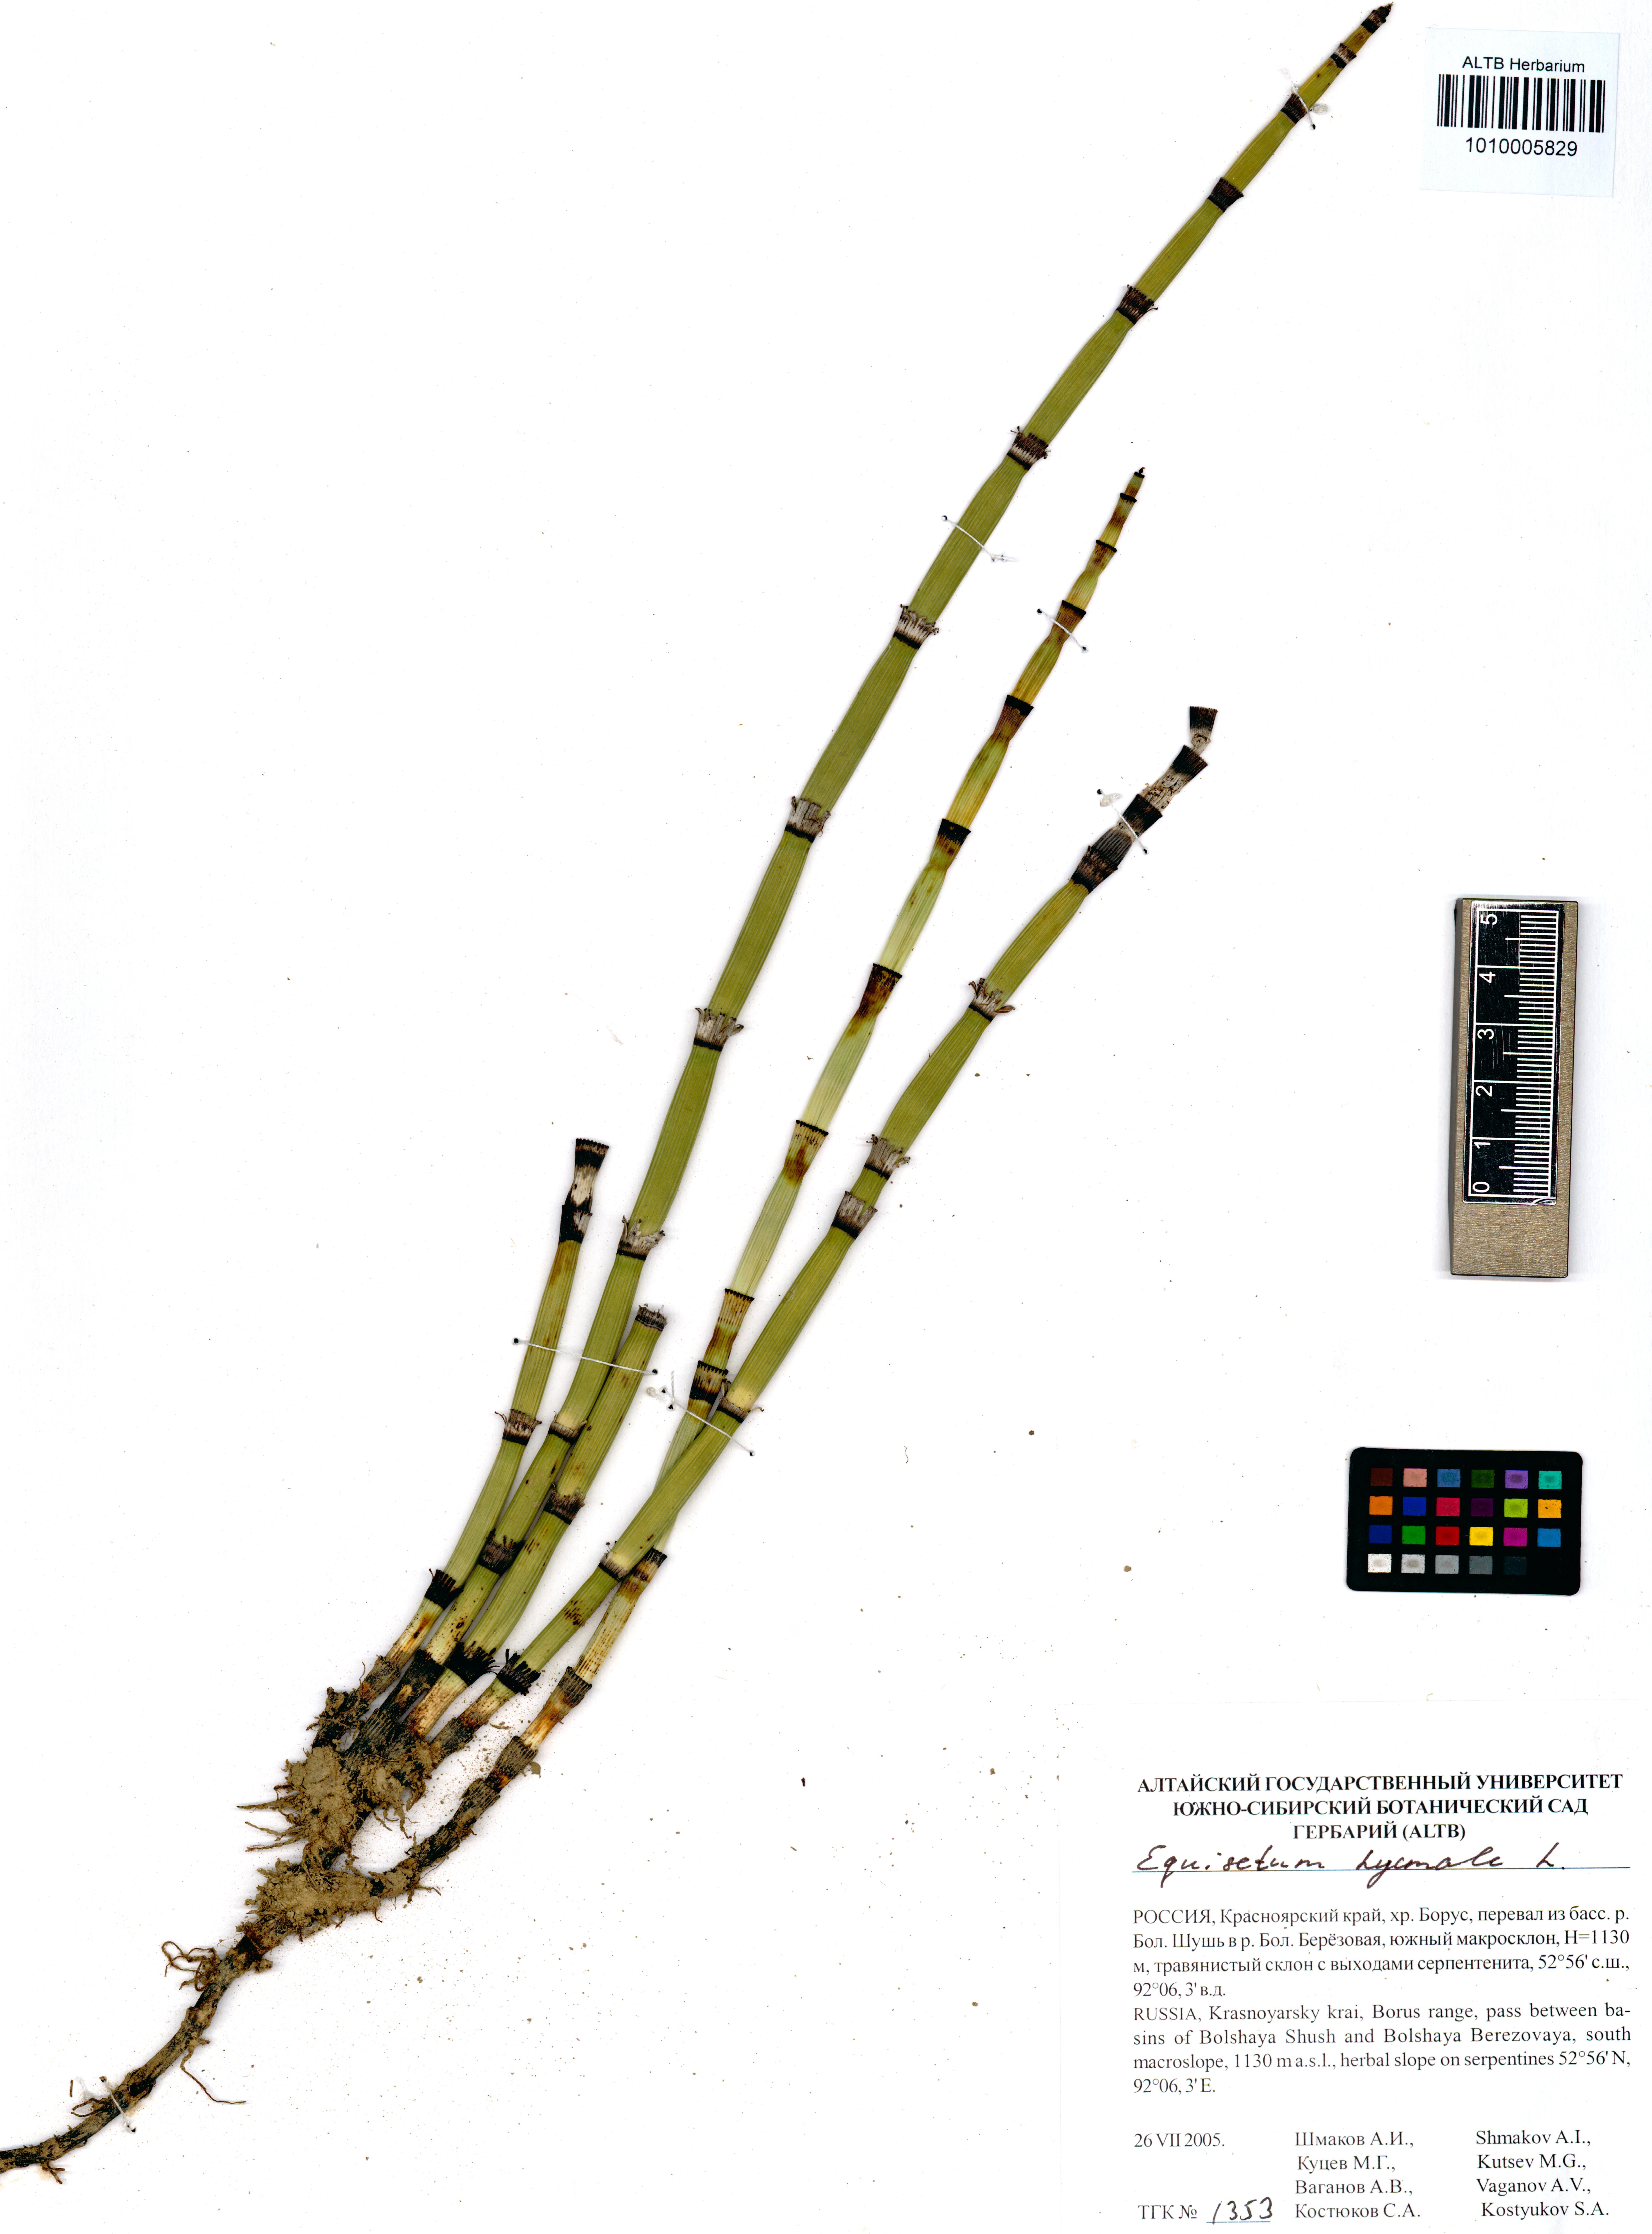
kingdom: Plantae
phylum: Tracheophyta
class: Polypodiopsida
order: Equisetales
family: Equisetaceae
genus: Equisetum
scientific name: Equisetum hyemale
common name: Rough horsetail
